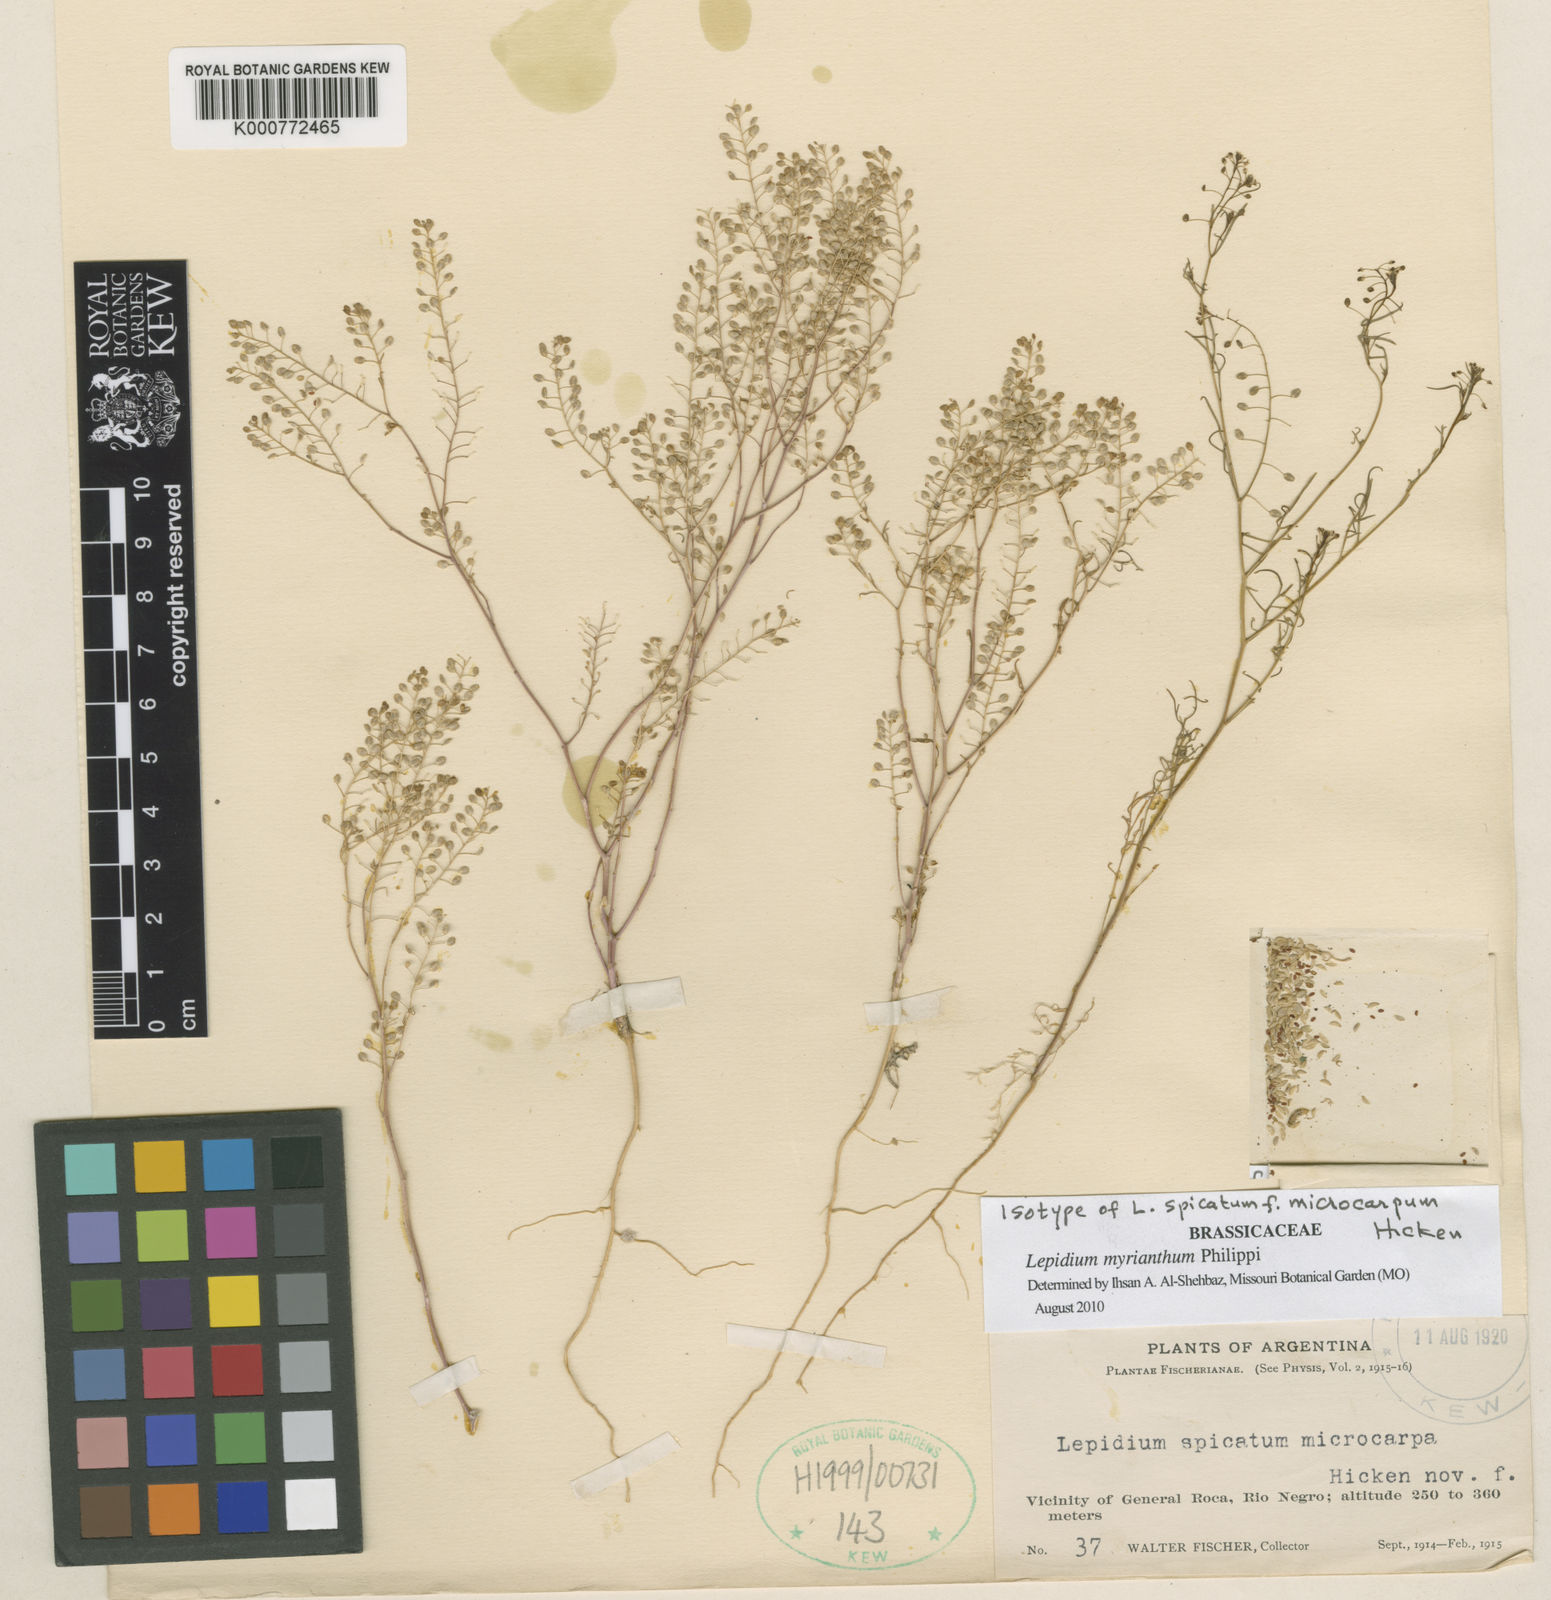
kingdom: Plantae
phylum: Tracheophyta
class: Magnoliopsida
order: Brassicales
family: Brassicaceae
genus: Lepidium
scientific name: Lepidium myrianthum
